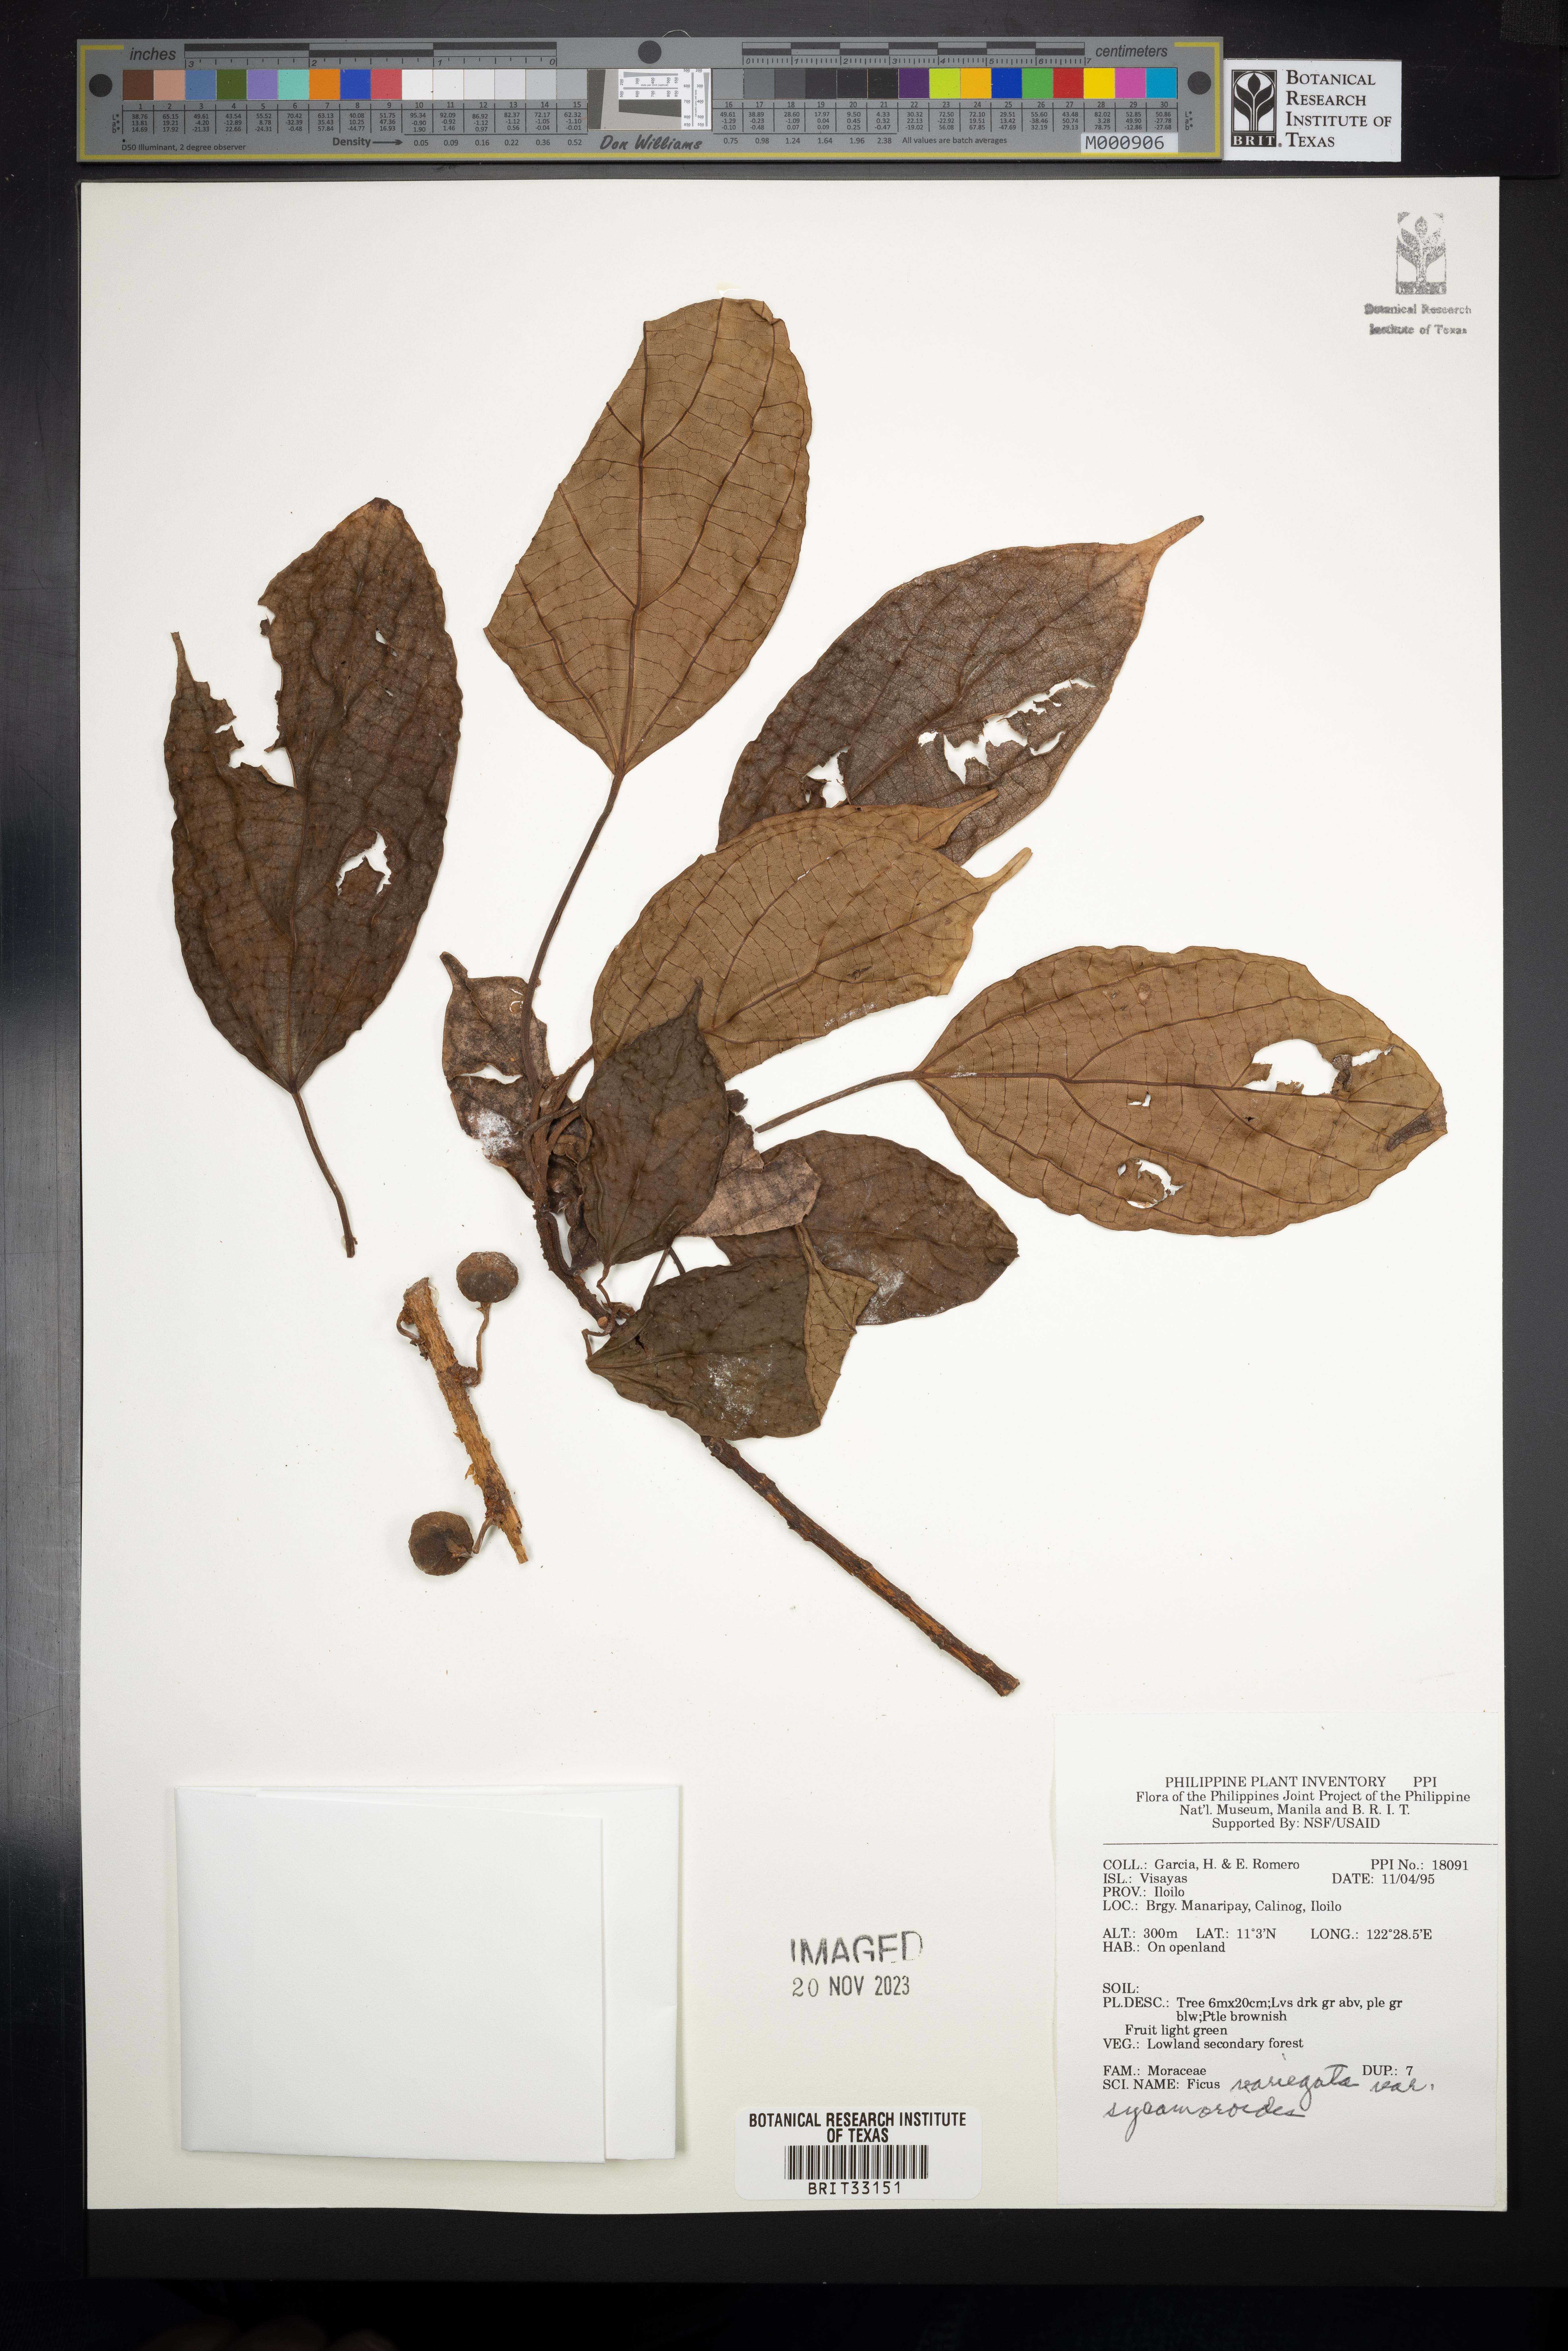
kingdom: Plantae
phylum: Tracheophyta
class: Magnoliopsida
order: Rosales
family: Moraceae
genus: Ficus
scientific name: Ficus variegata
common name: Variegated fig
